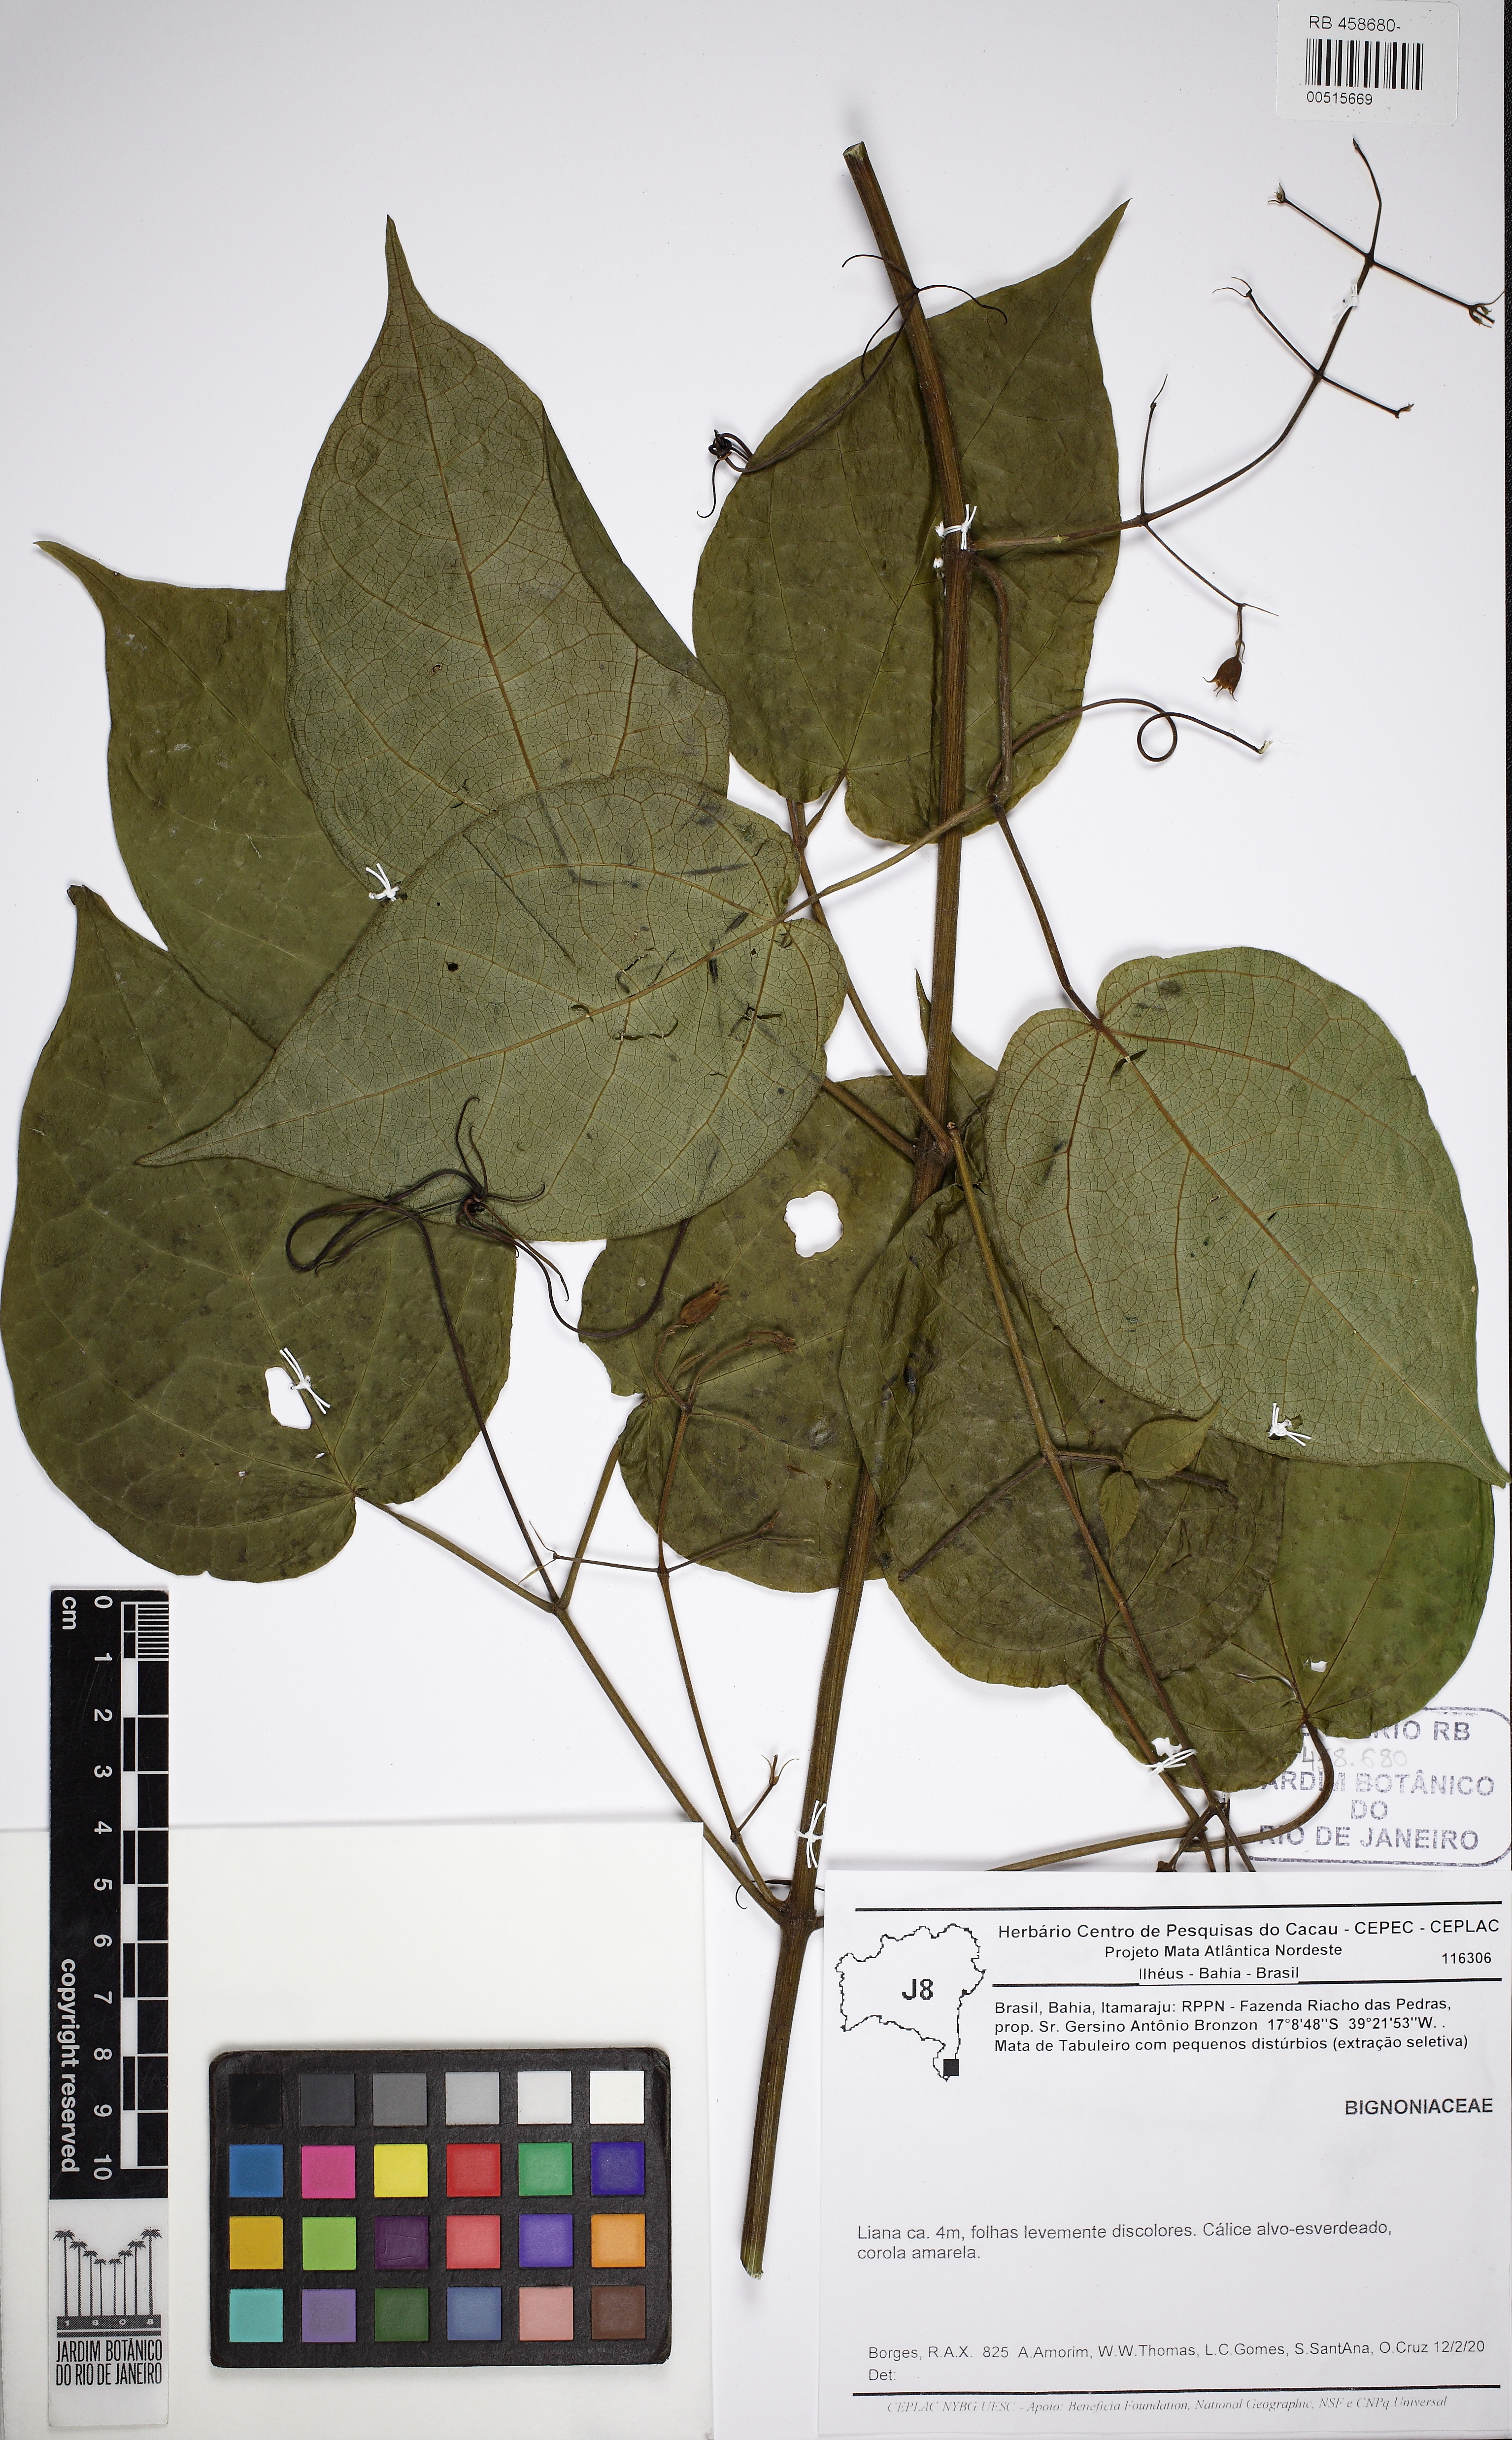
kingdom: Plantae
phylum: Tracheophyta
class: Magnoliopsida
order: Lamiales
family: Bignoniaceae
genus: Martinella
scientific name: Martinella insignis
